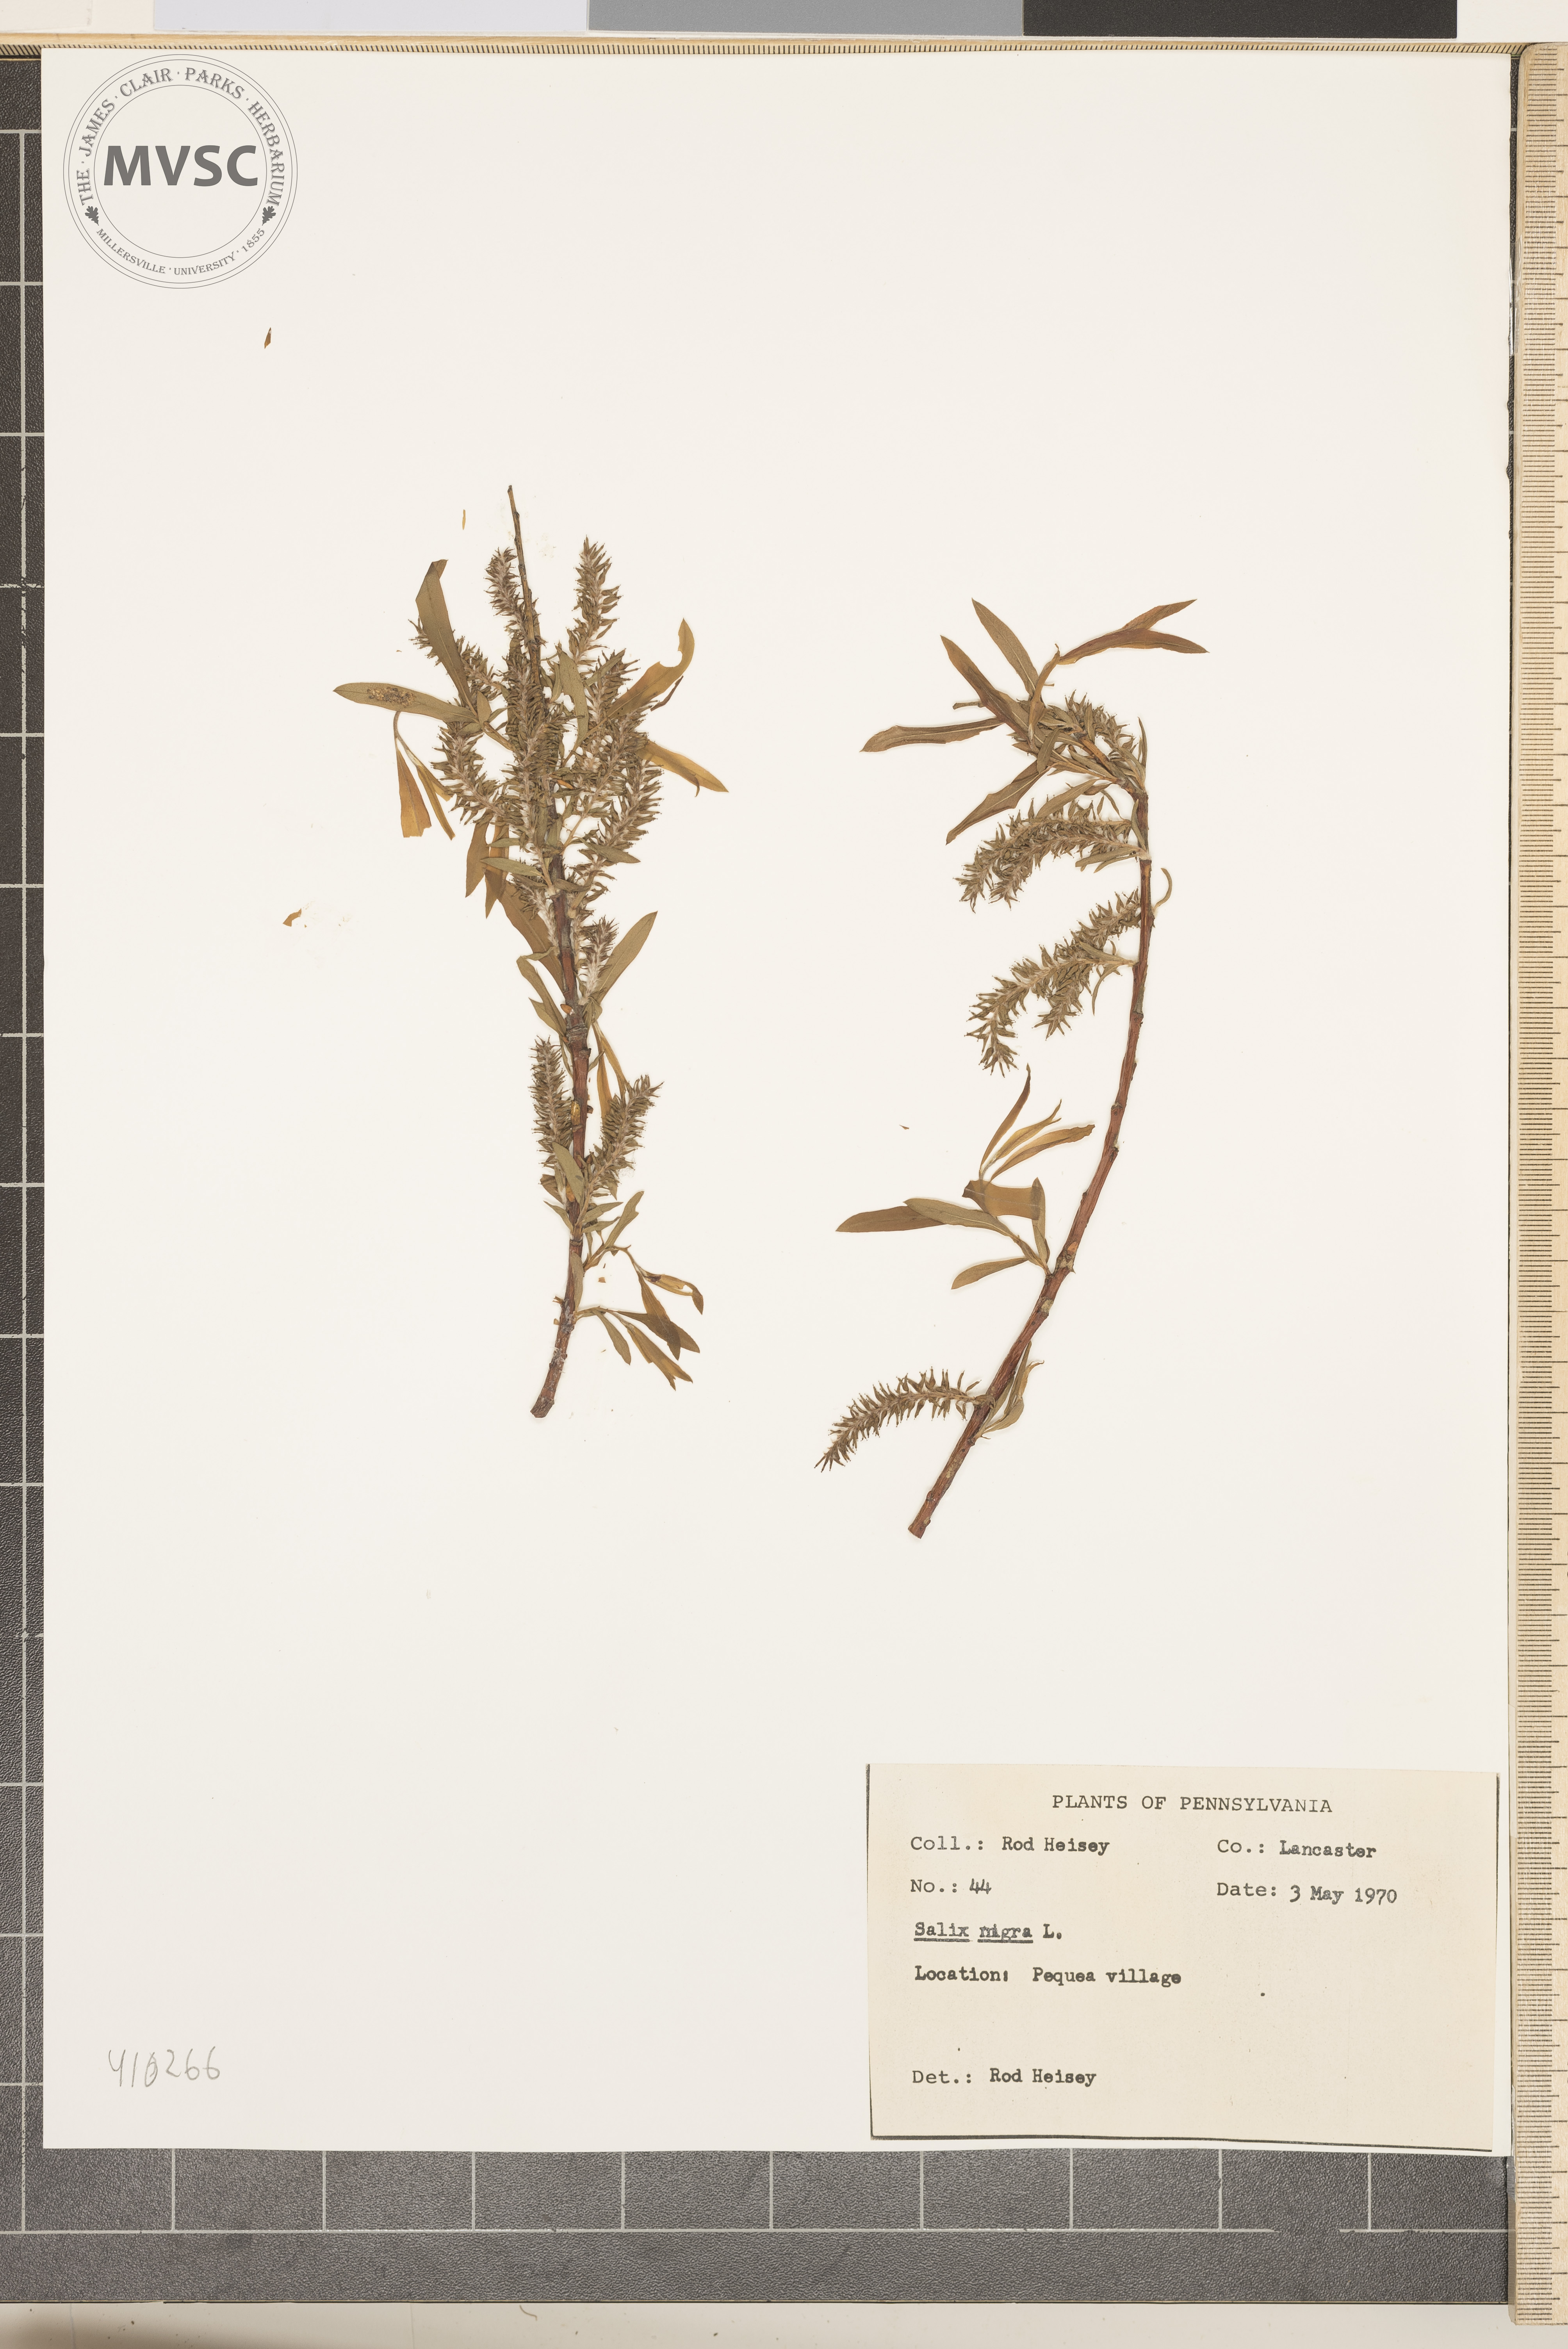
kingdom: Plantae
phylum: Tracheophyta
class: Magnoliopsida
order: Malpighiales
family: Salicaceae
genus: Salix
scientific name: Salix nigra
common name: Black willow
